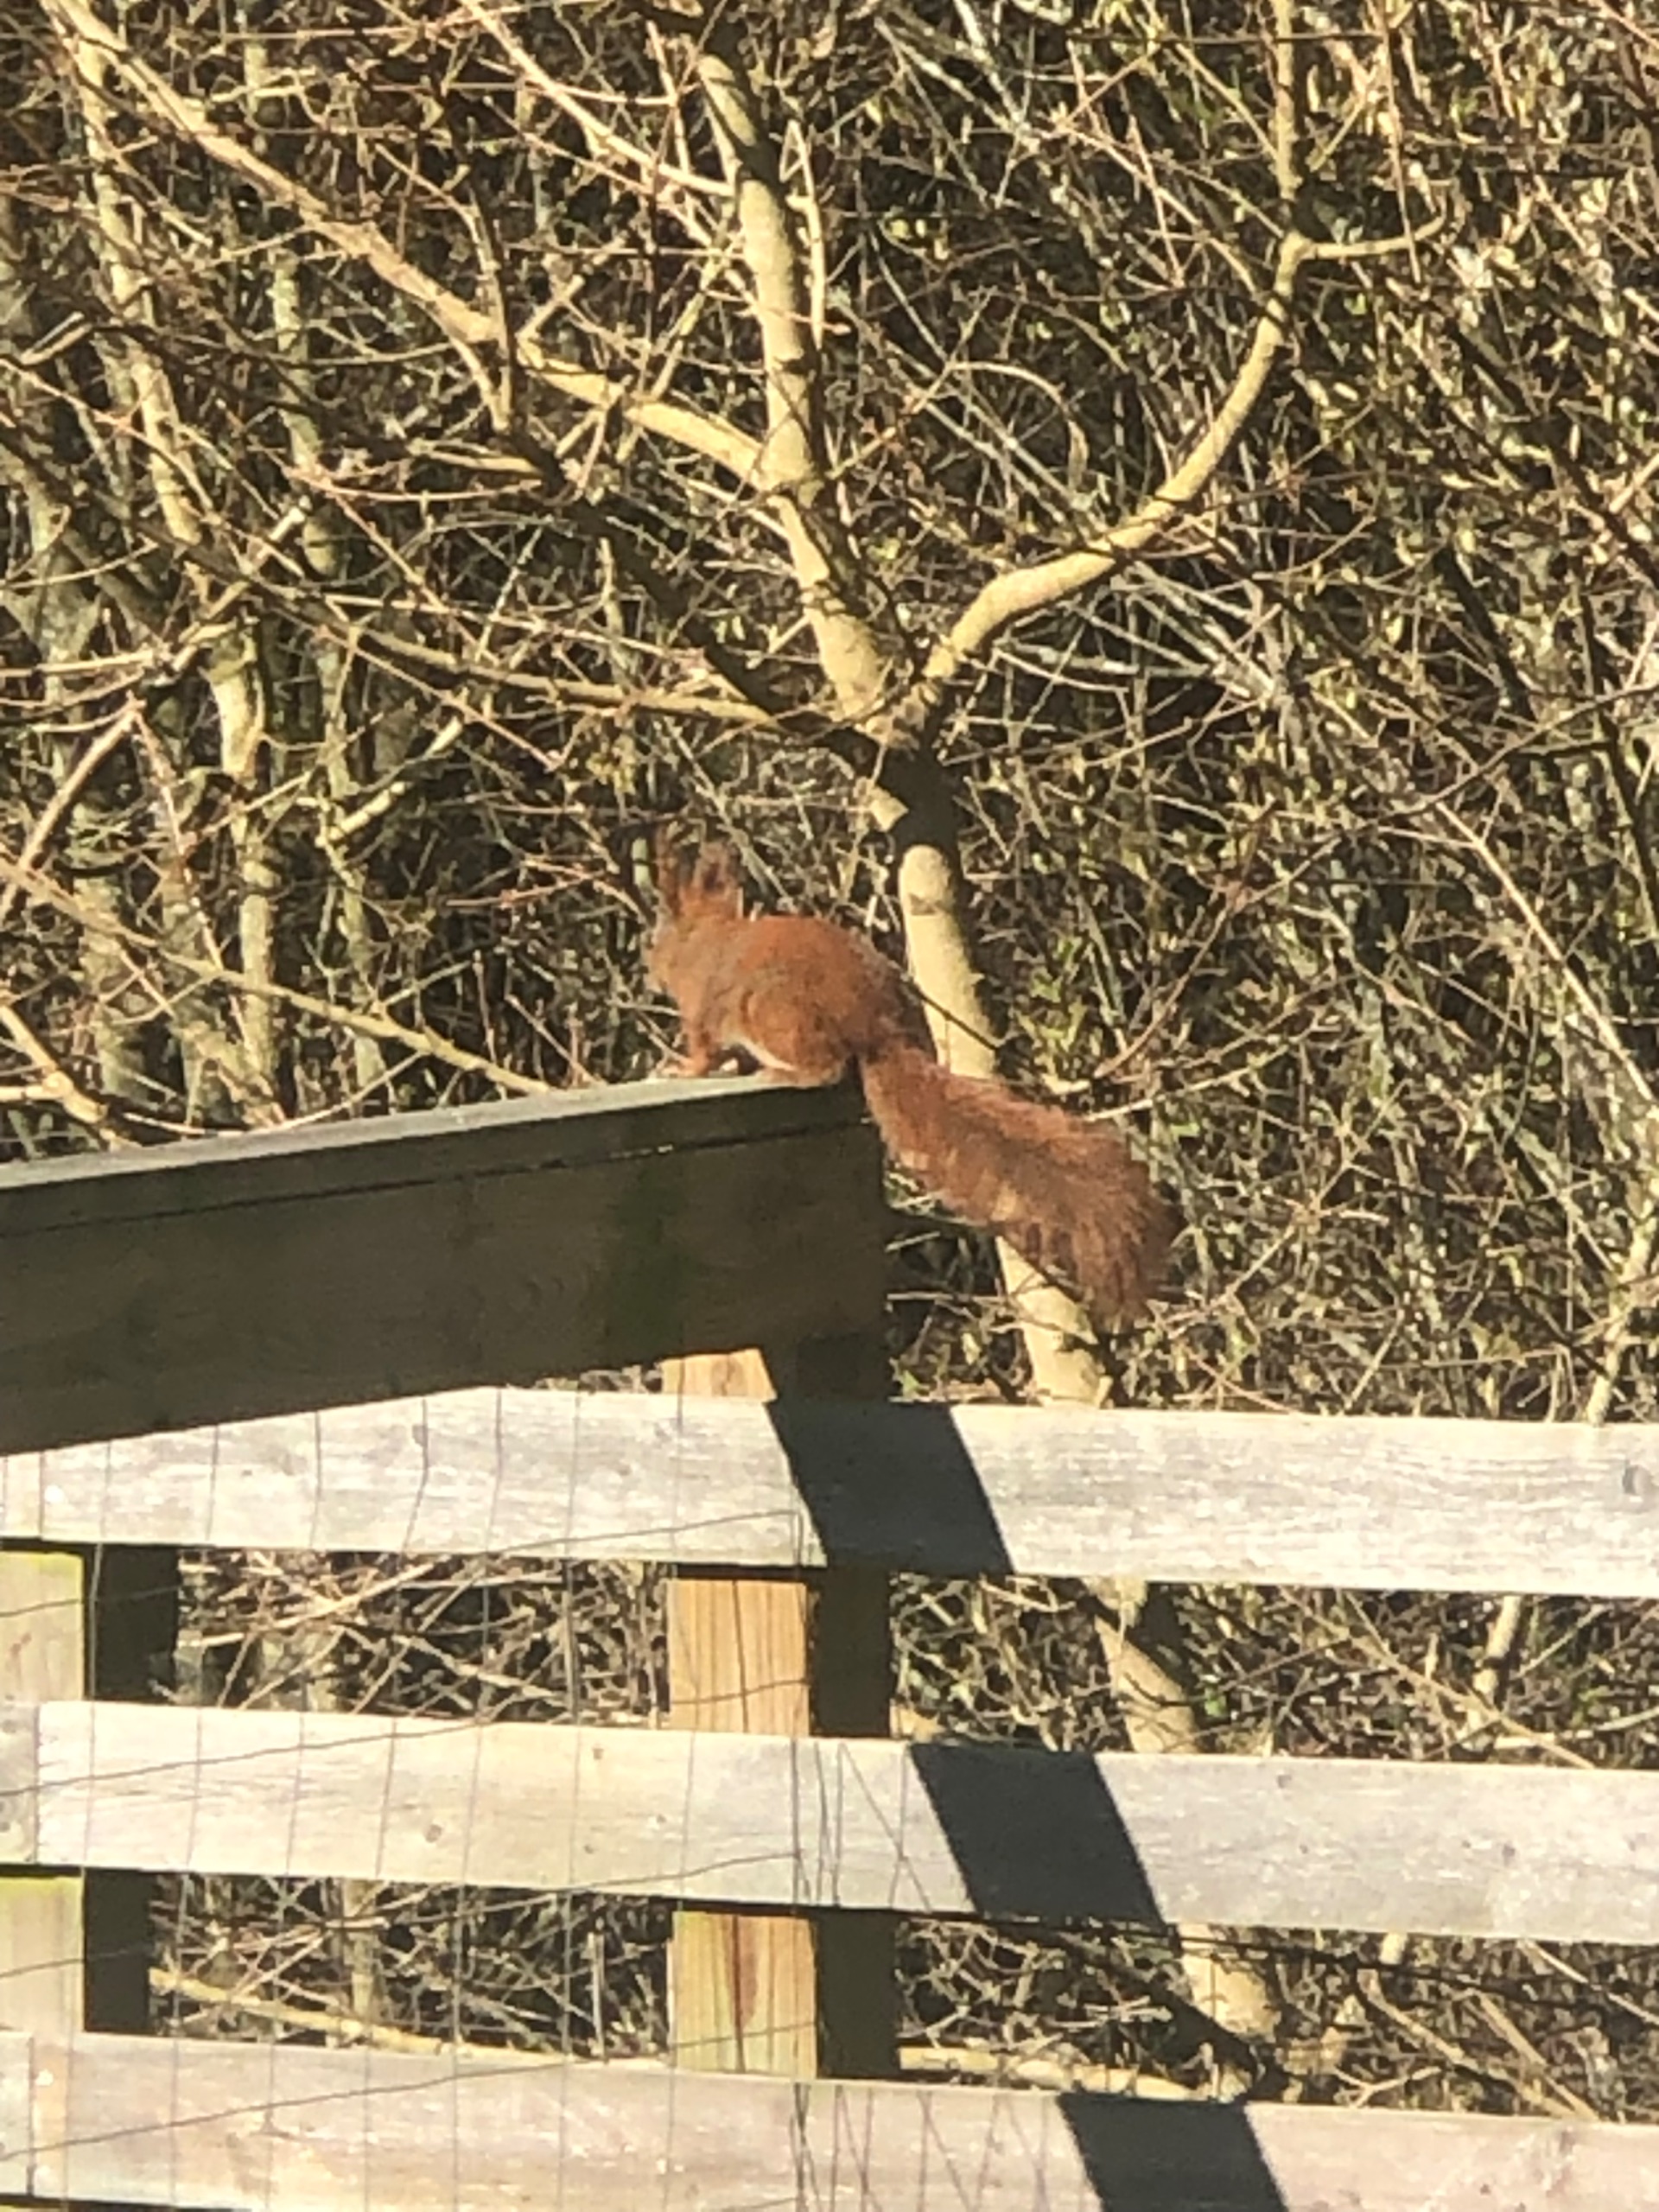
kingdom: Animalia
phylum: Chordata
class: Mammalia
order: Rodentia
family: Sciuridae
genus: Sciurus
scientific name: Sciurus vulgaris
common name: Egern
